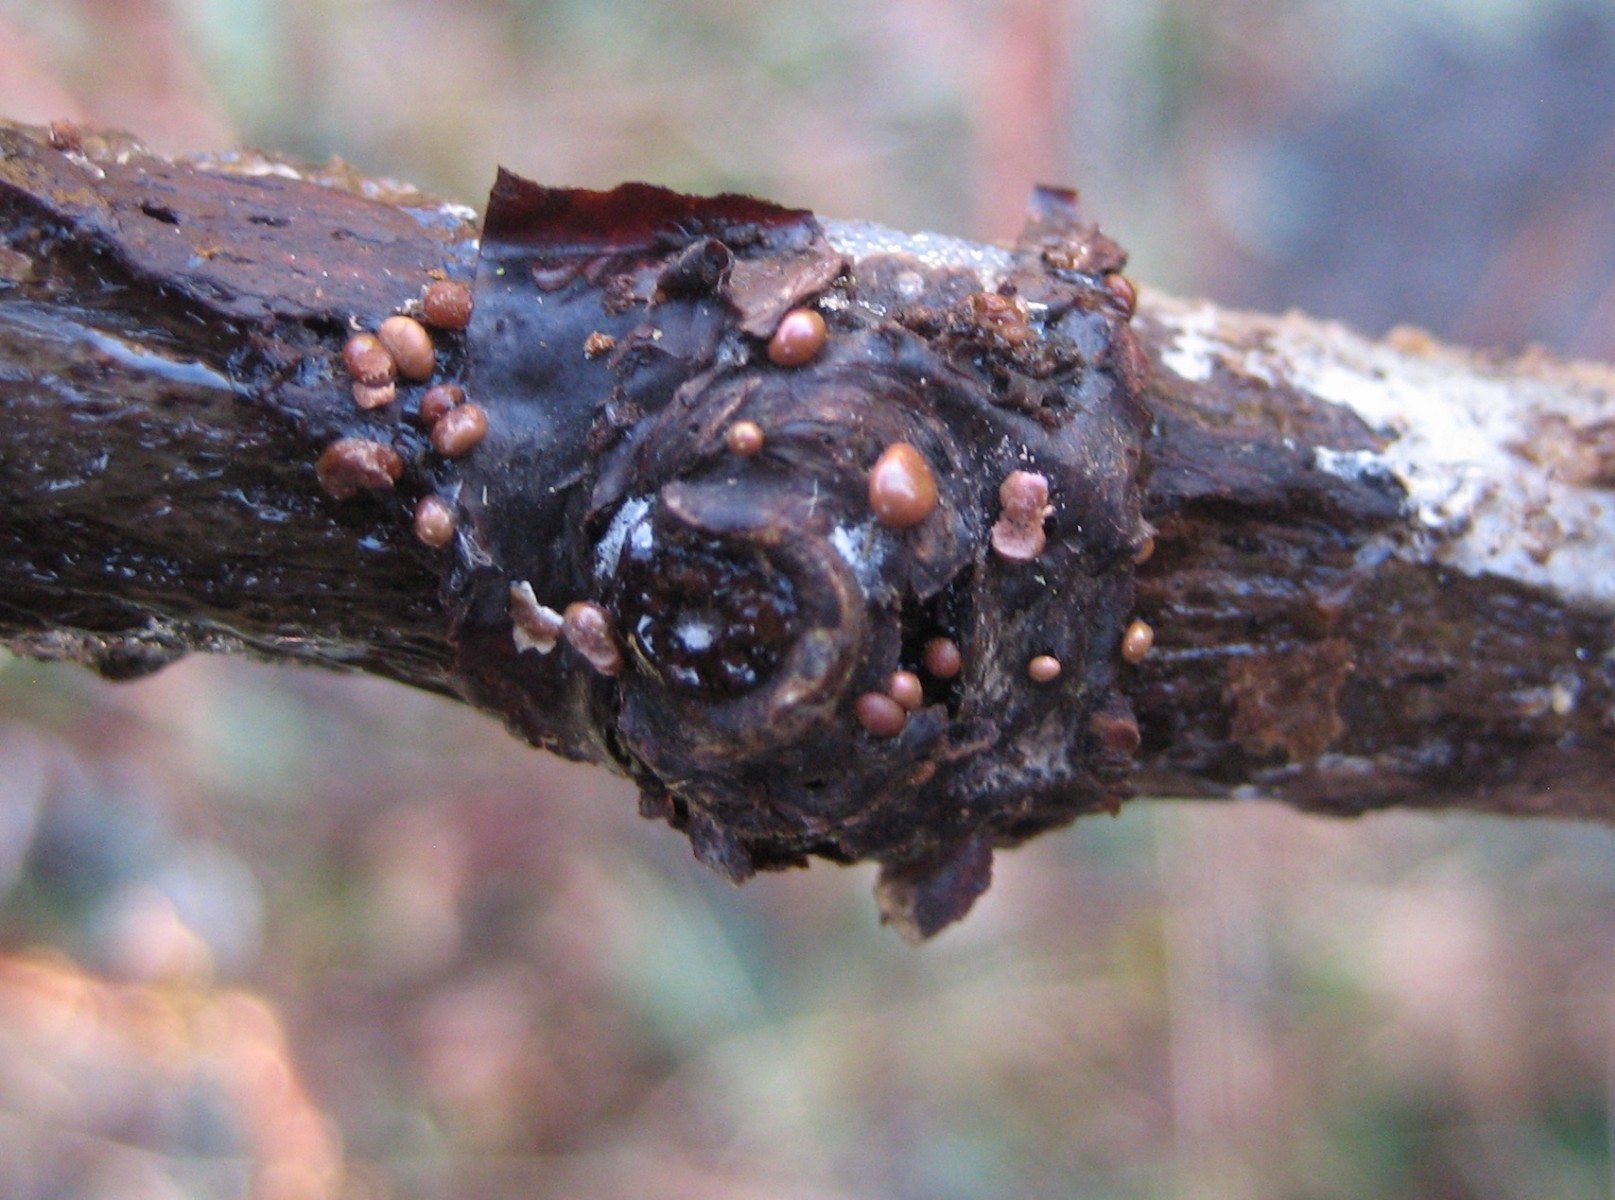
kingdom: Protozoa
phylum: Mycetozoa
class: Myxomycetes
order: Cribrariales
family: Tubiferaceae
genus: Lycogala
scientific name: Lycogala epidendrum
